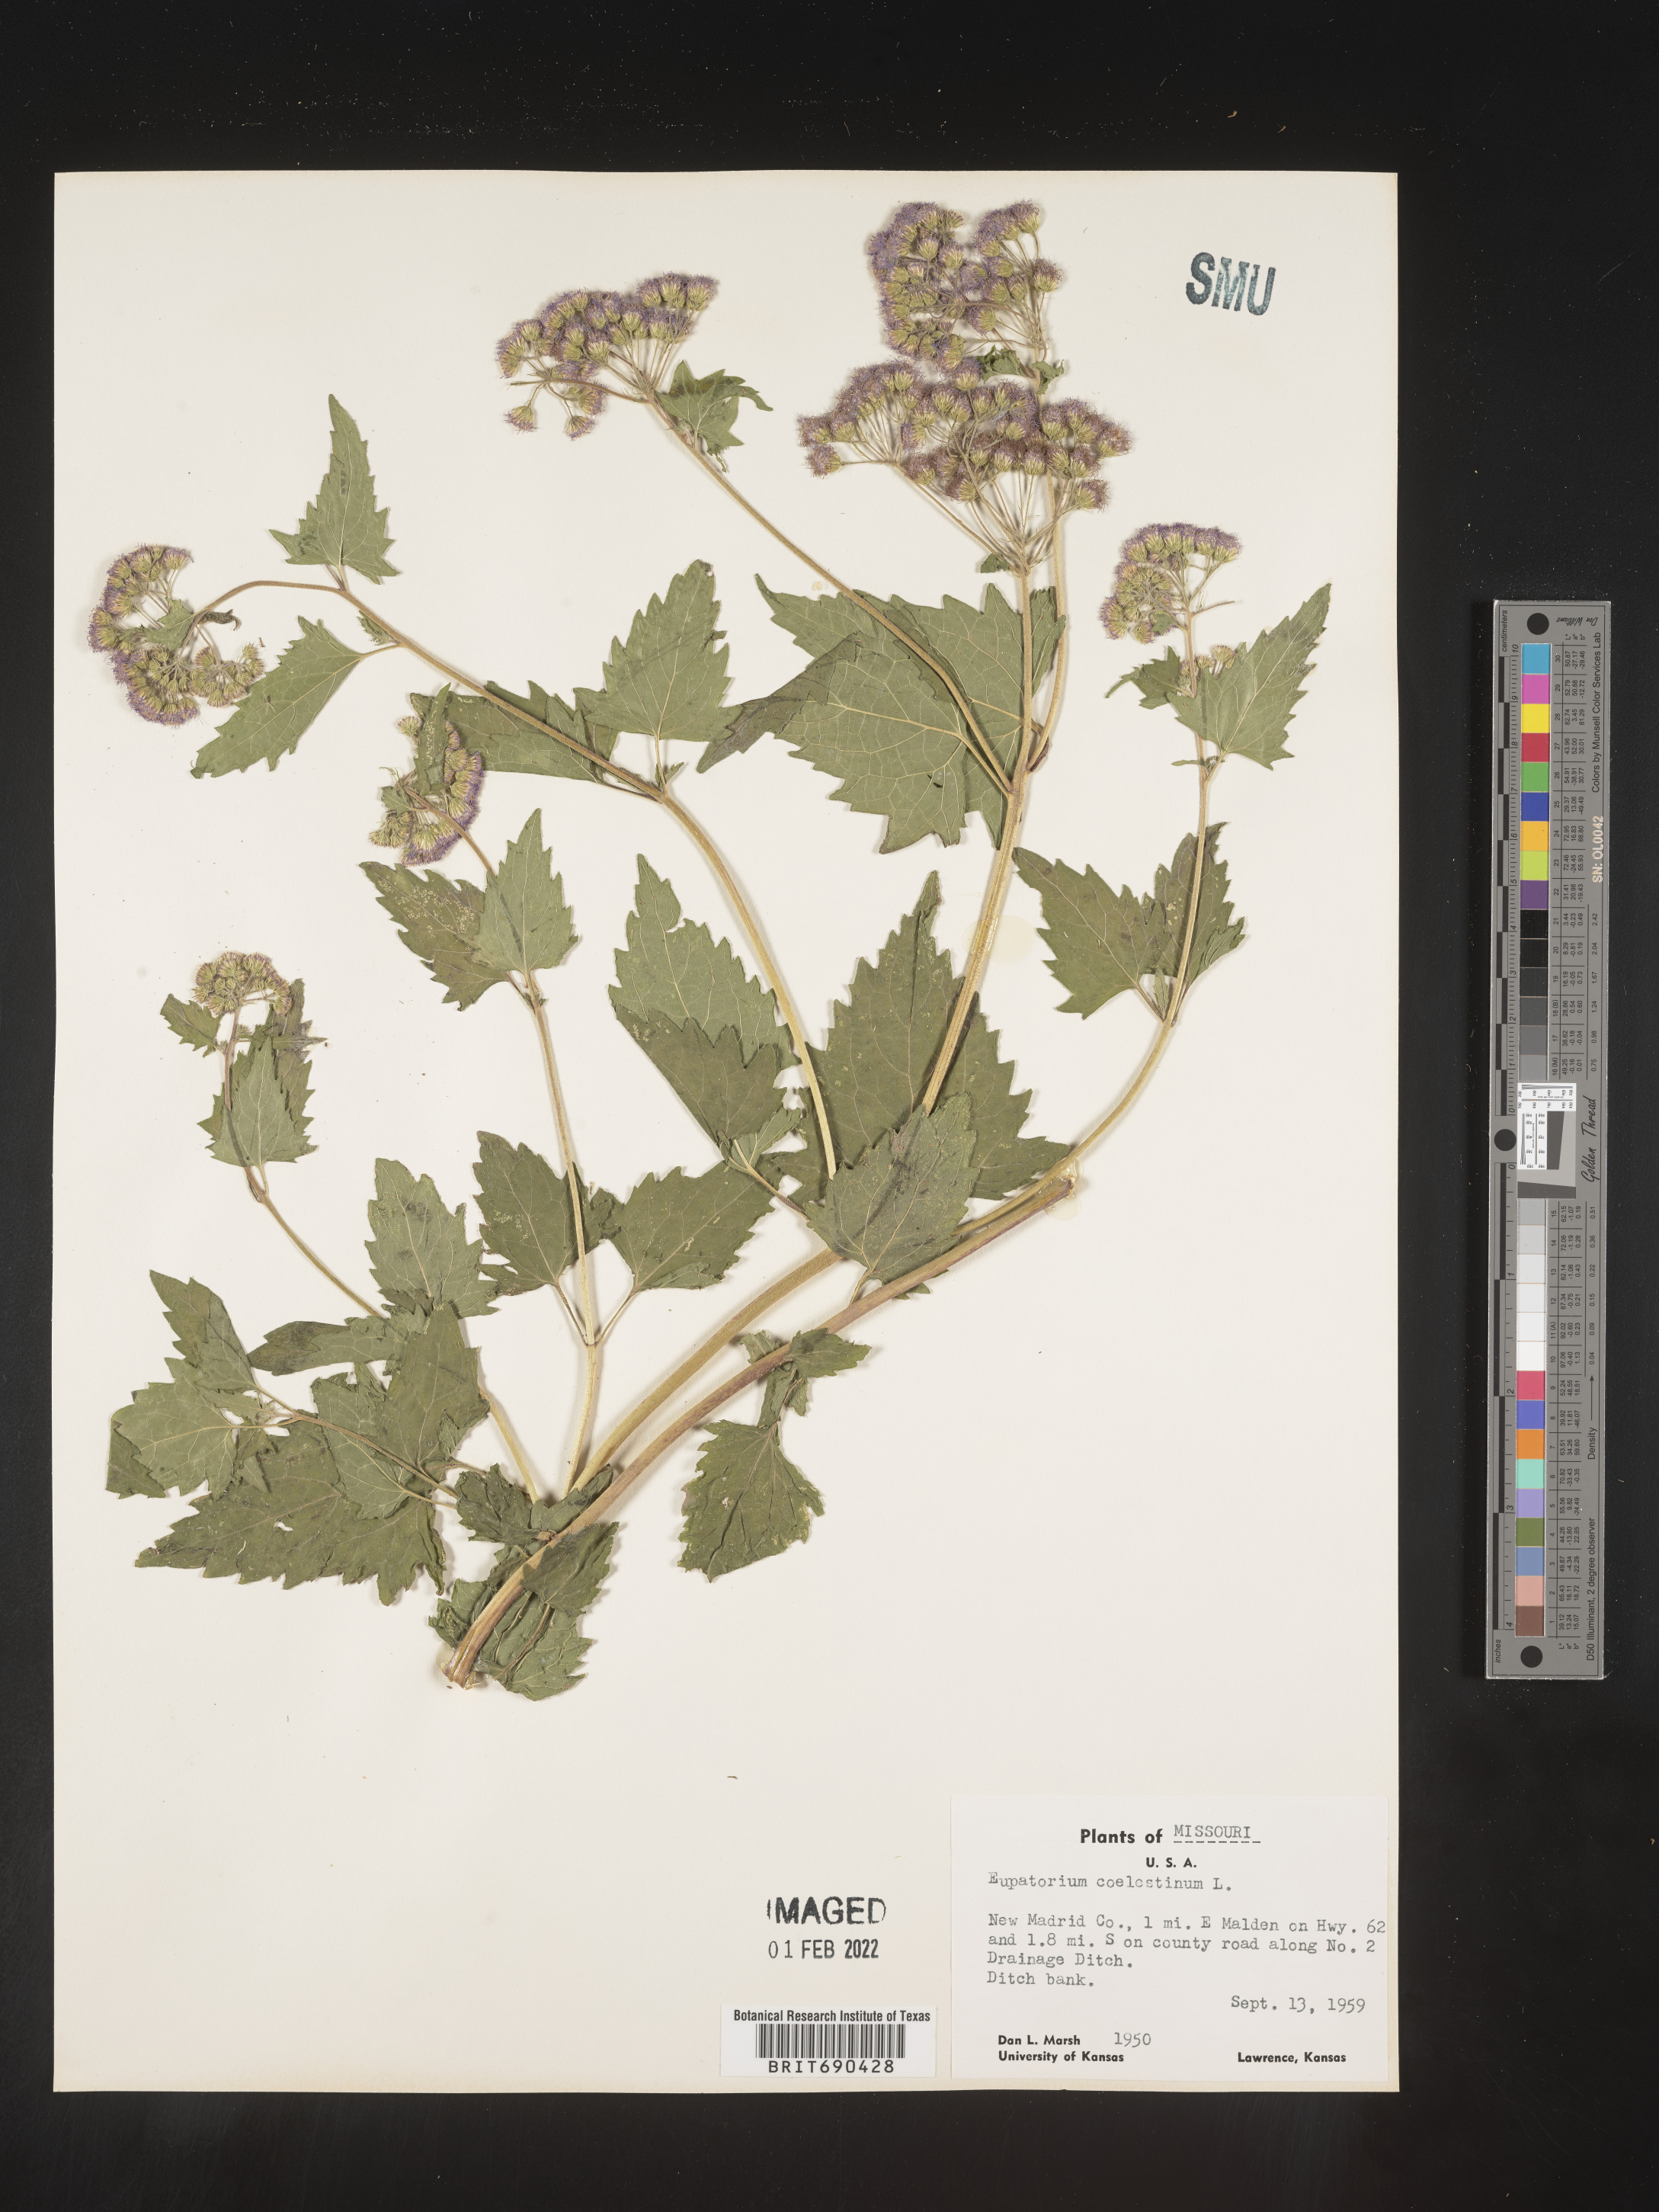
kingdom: Plantae
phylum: Tracheophyta
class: Magnoliopsida
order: Asterales
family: Asteraceae
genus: Conoclinium
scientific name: Conoclinium coelestinum
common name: Blue mistflower
